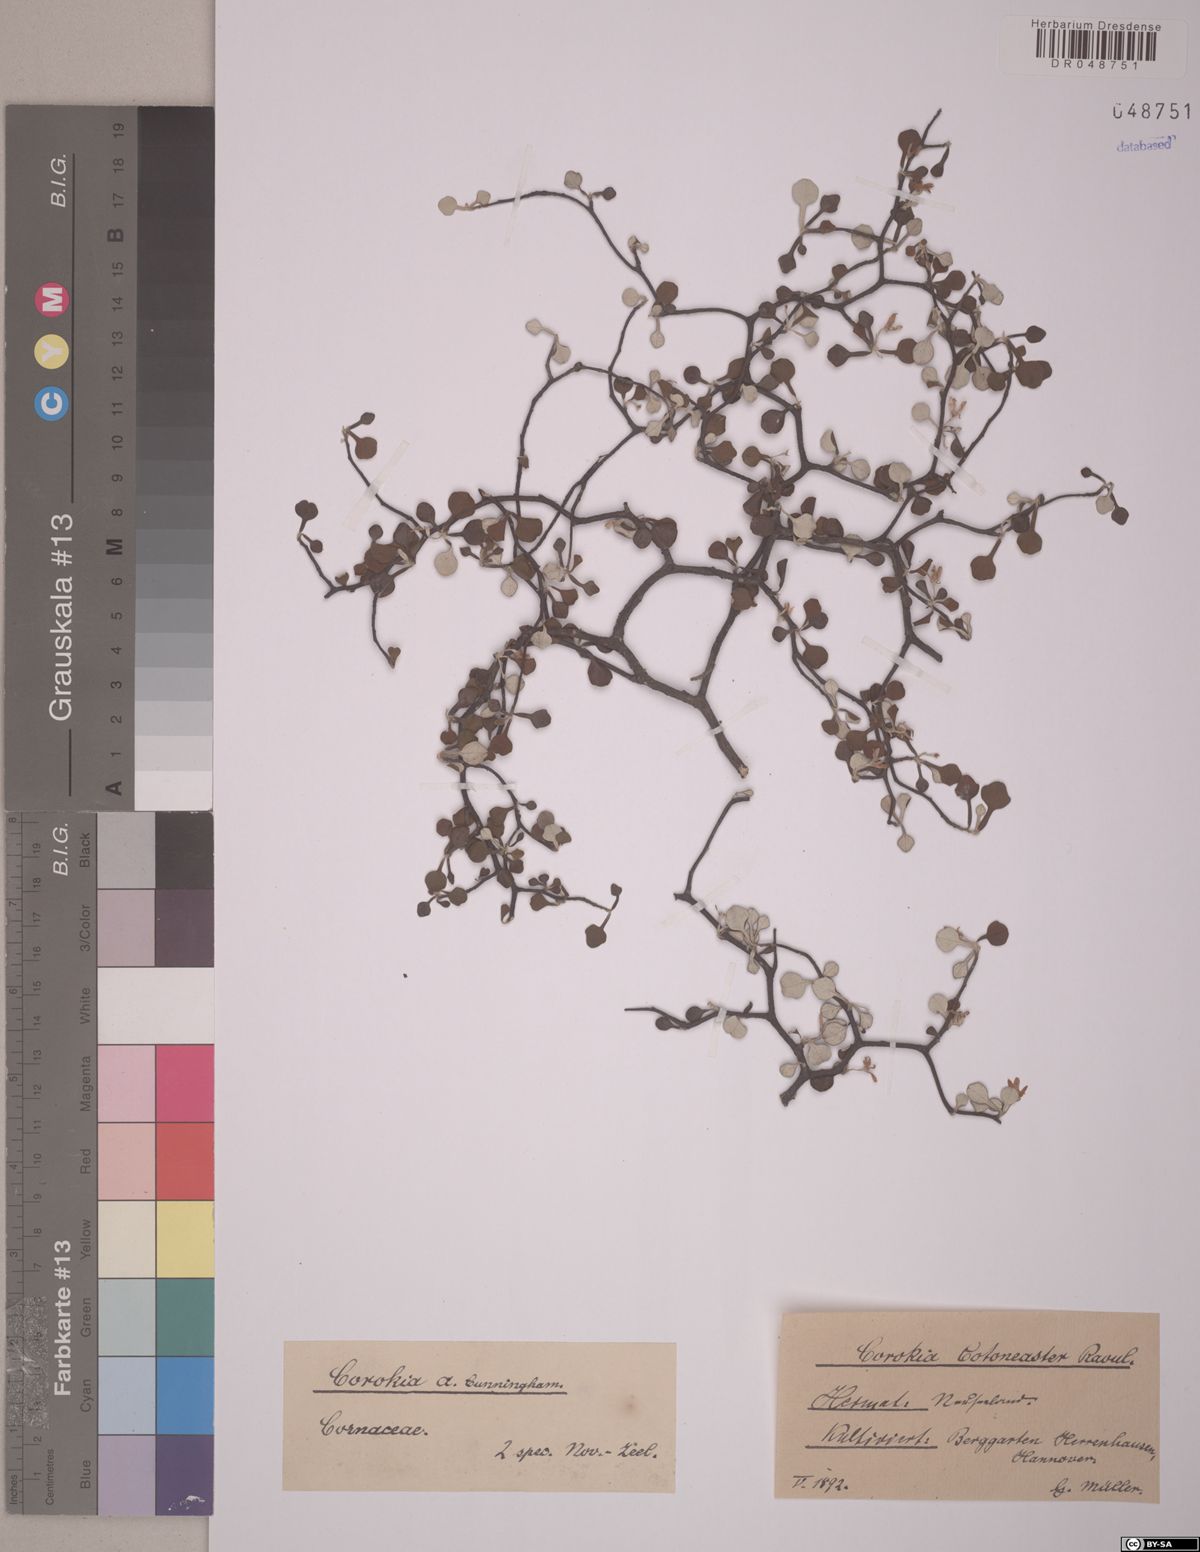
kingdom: Plantae
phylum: Tracheophyta
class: Magnoliopsida
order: Asterales
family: Argophyllaceae
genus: Corokia
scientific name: Corokia cotoneaster
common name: Wire nettingbush
